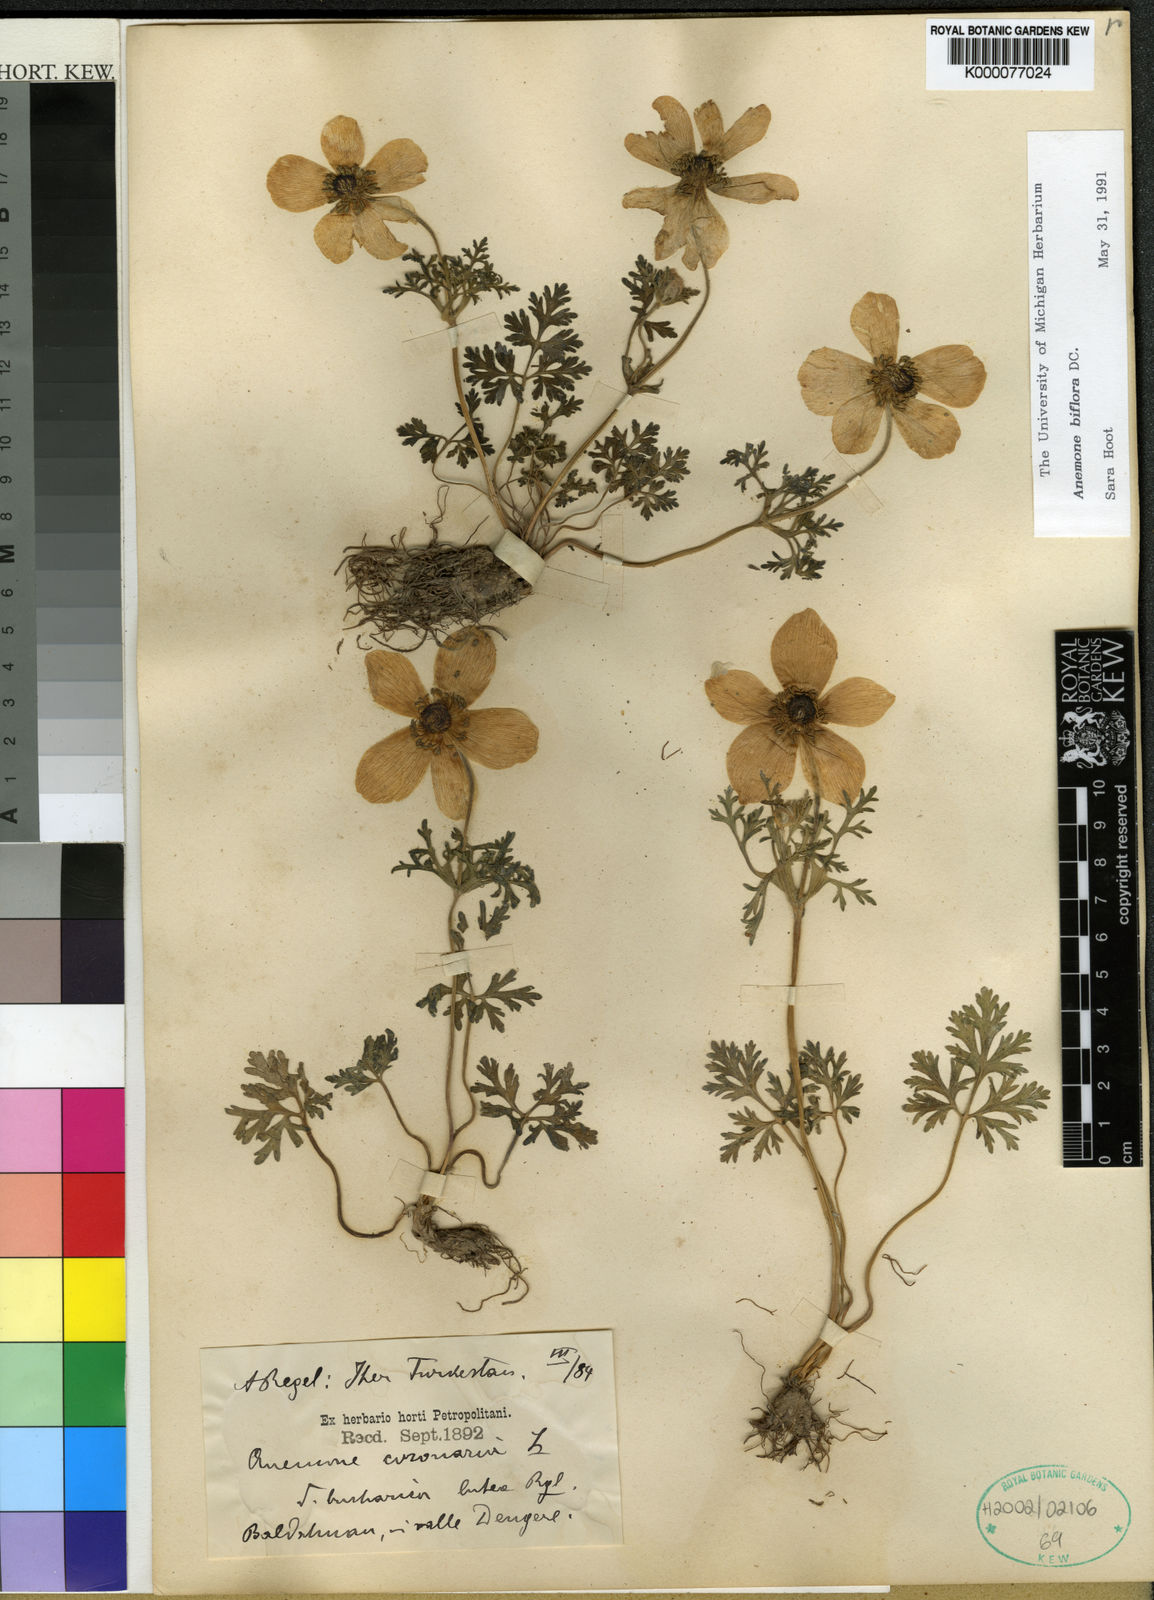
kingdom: Plantae
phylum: Tracheophyta
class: Magnoliopsida
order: Ranunculales
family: Ranunculaceae
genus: Anemone
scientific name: Anemone biflora
